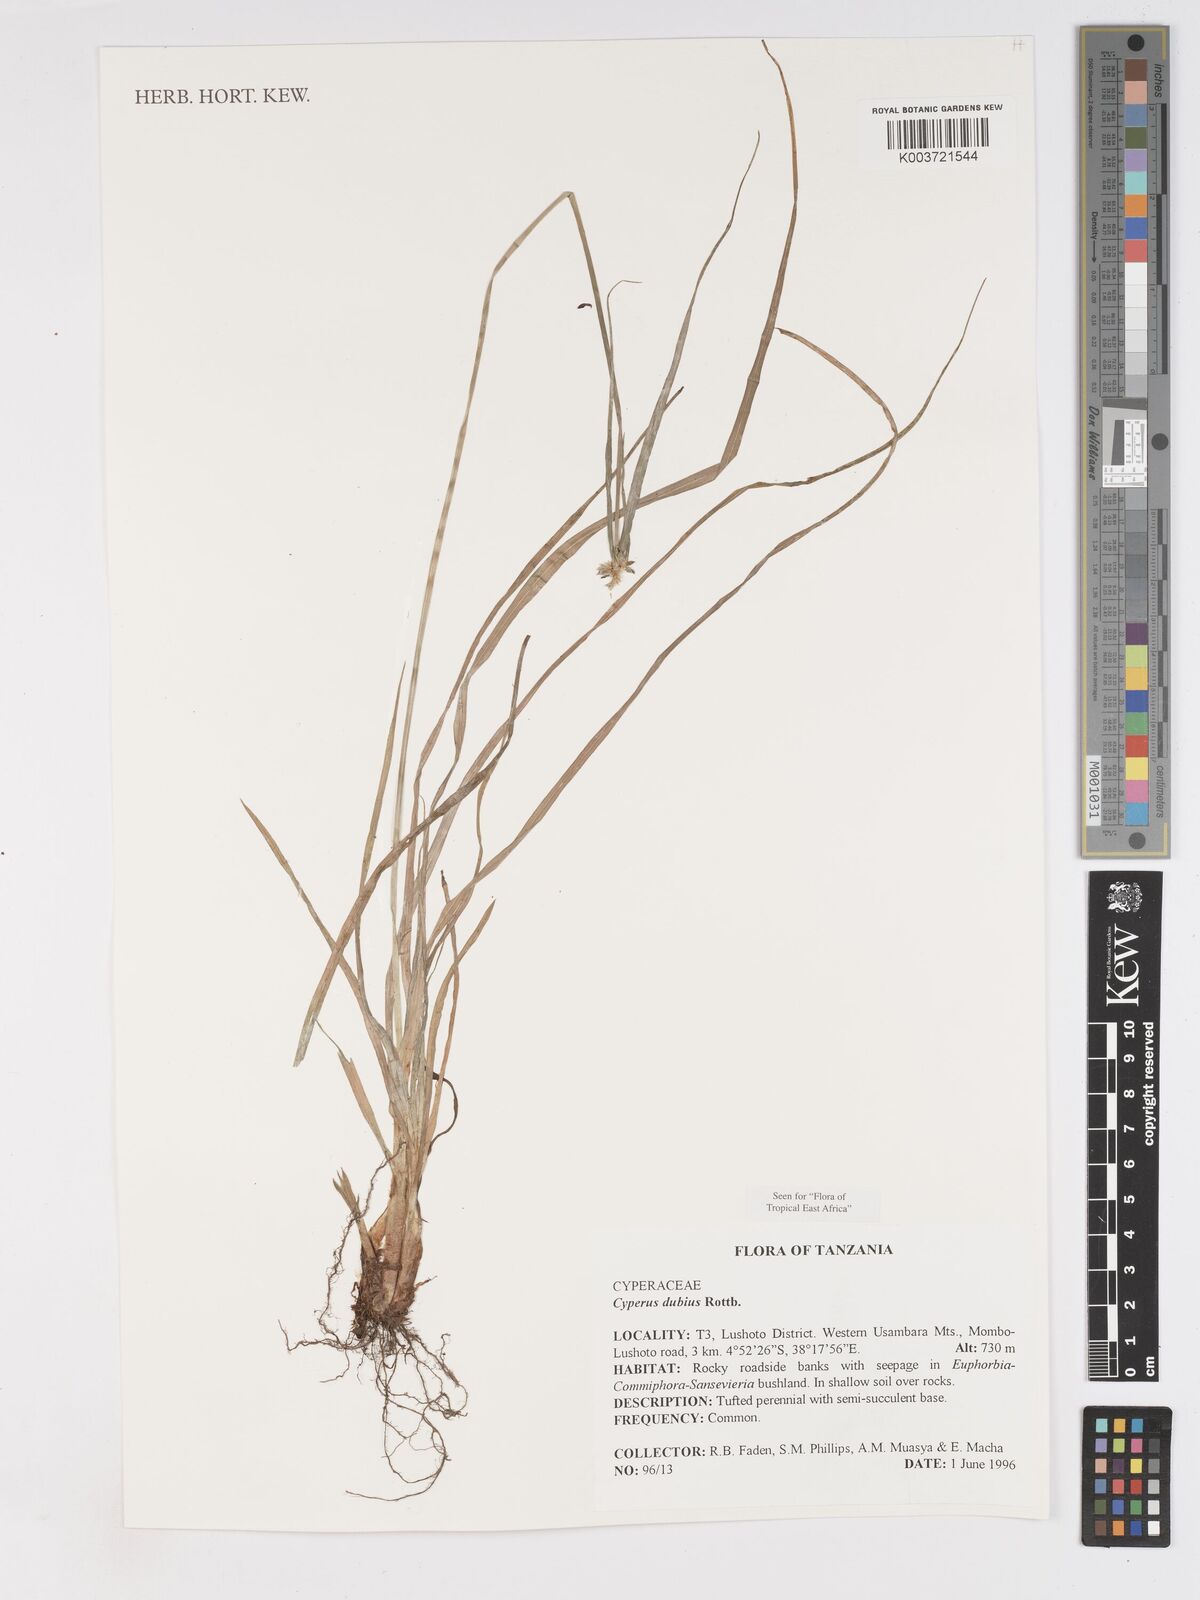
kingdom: Plantae
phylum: Tracheophyta
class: Liliopsida
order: Poales
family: Cyperaceae
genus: Cyperus
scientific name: Cyperus dubius
